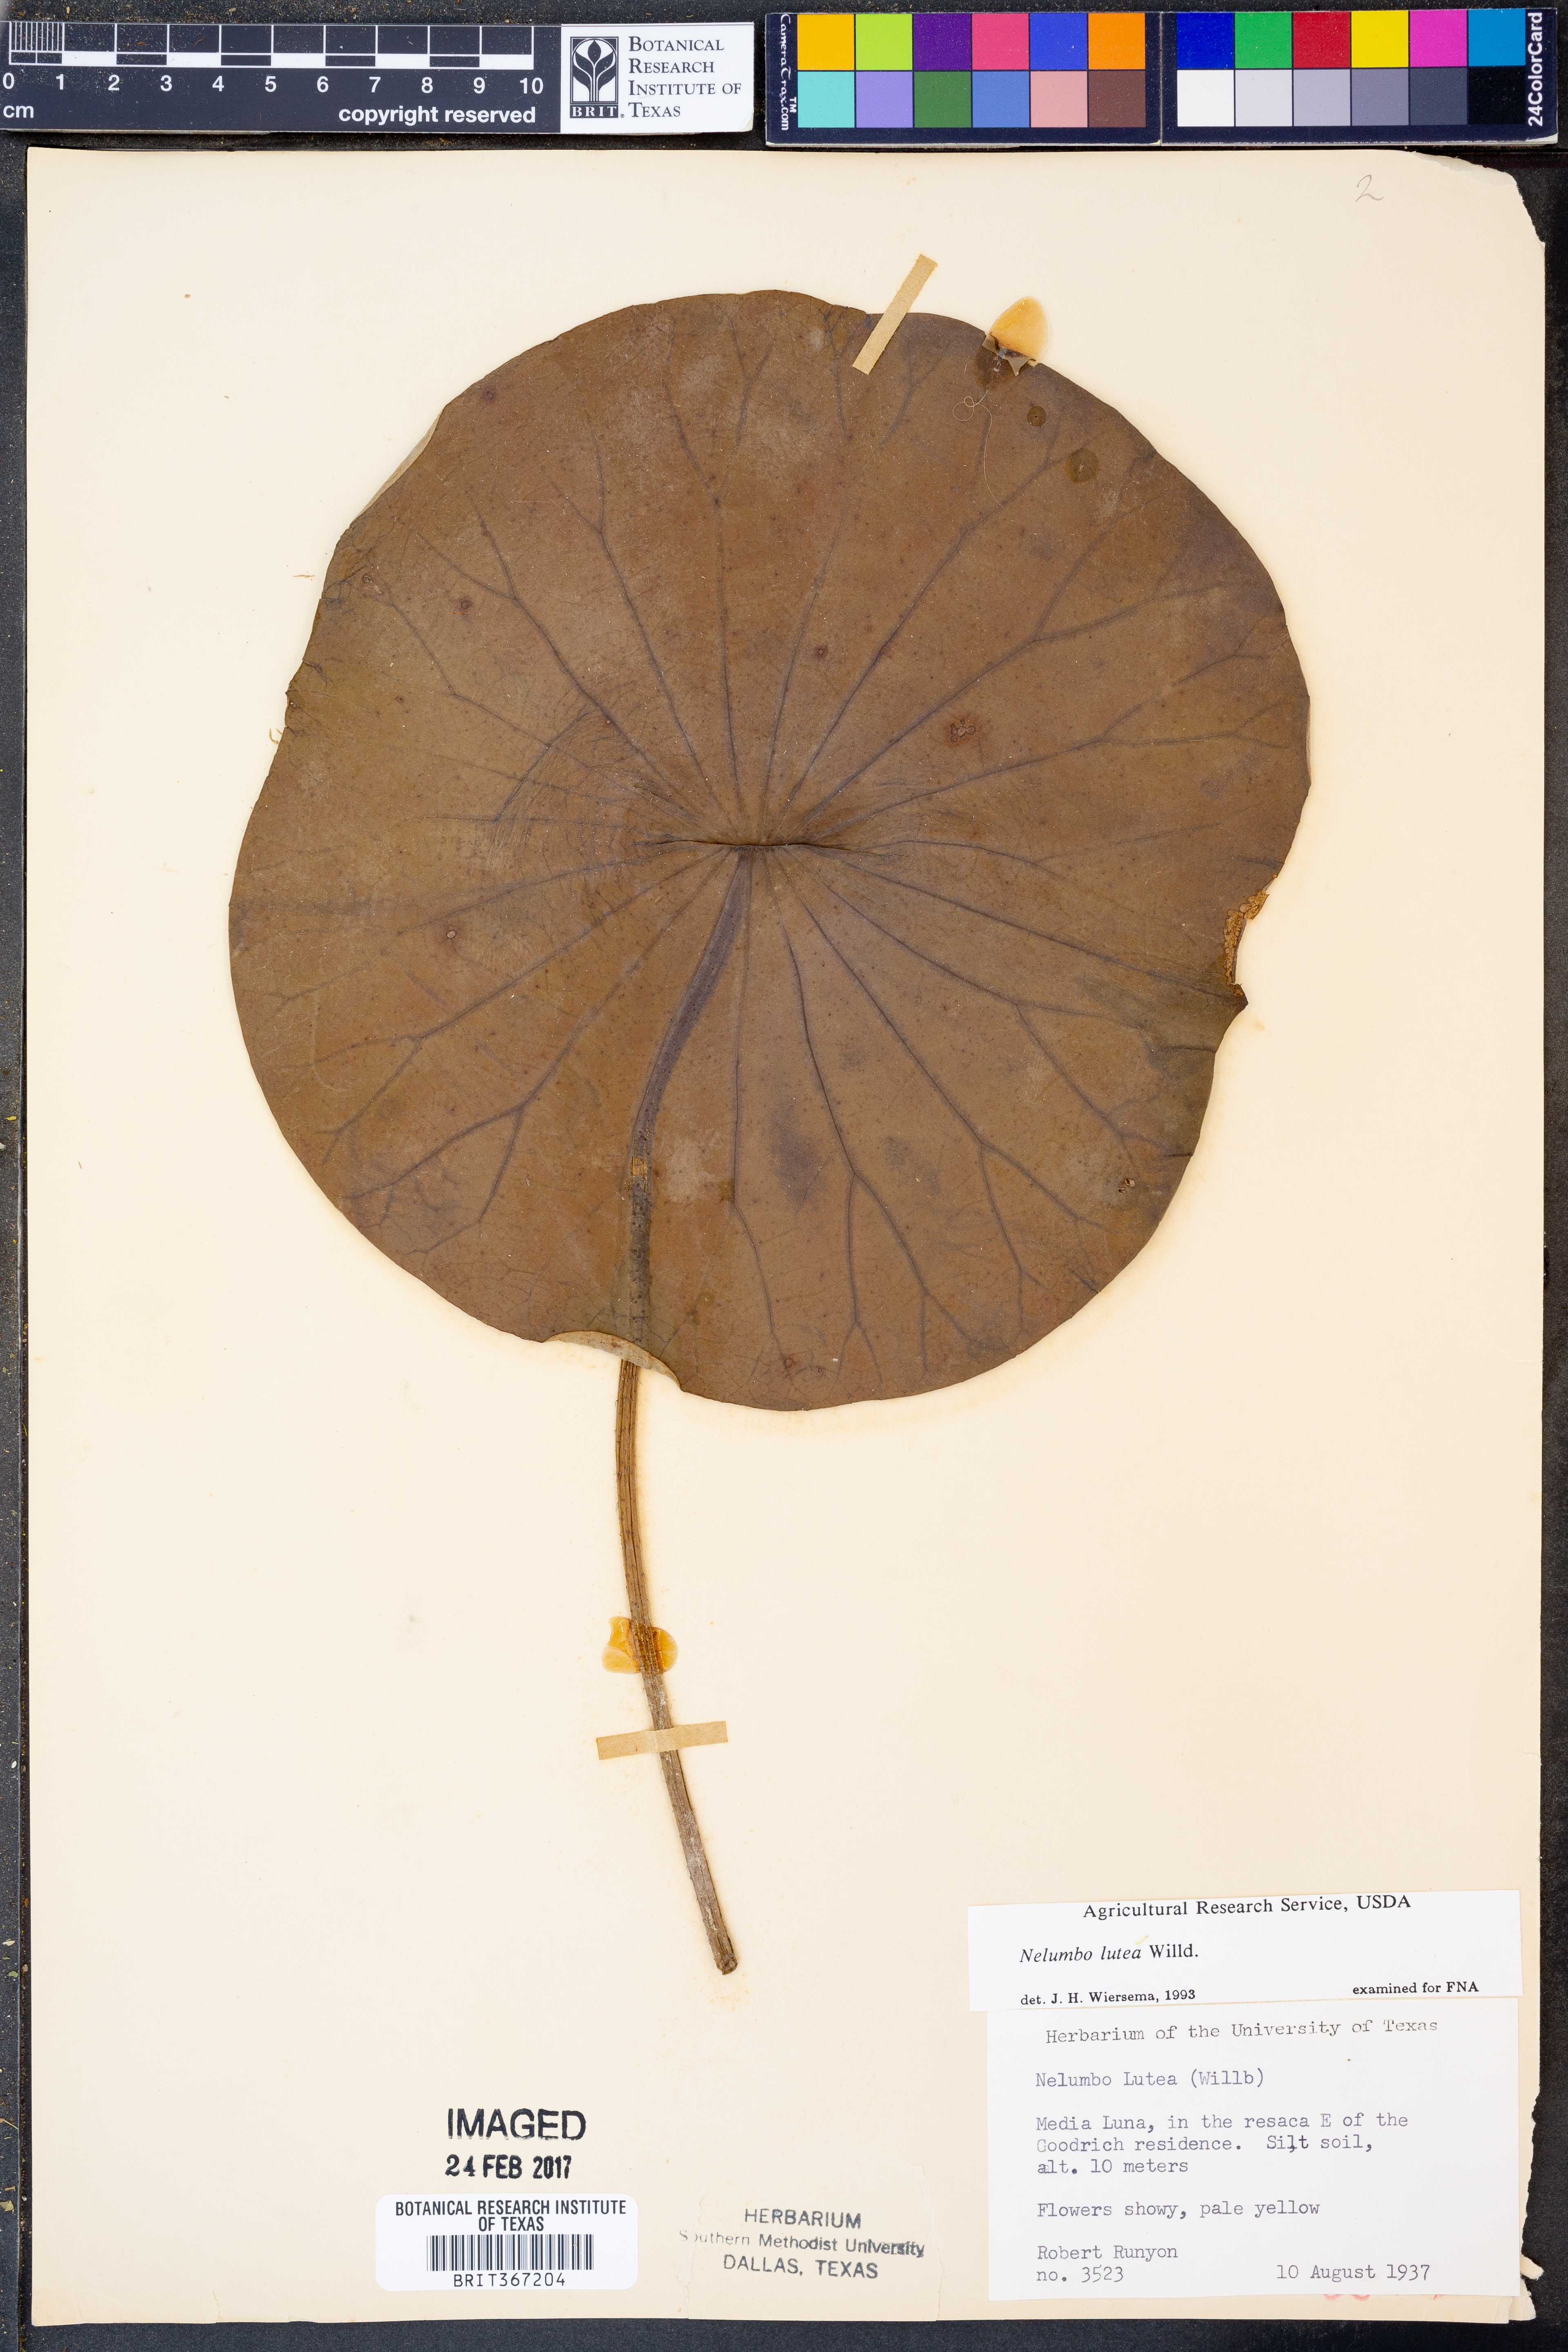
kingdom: Plantae
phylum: Tracheophyta
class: Magnoliopsida
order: Proteales
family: Nelumbonaceae
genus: Nelumbo
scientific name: Nelumbo lutea
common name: American lotus
